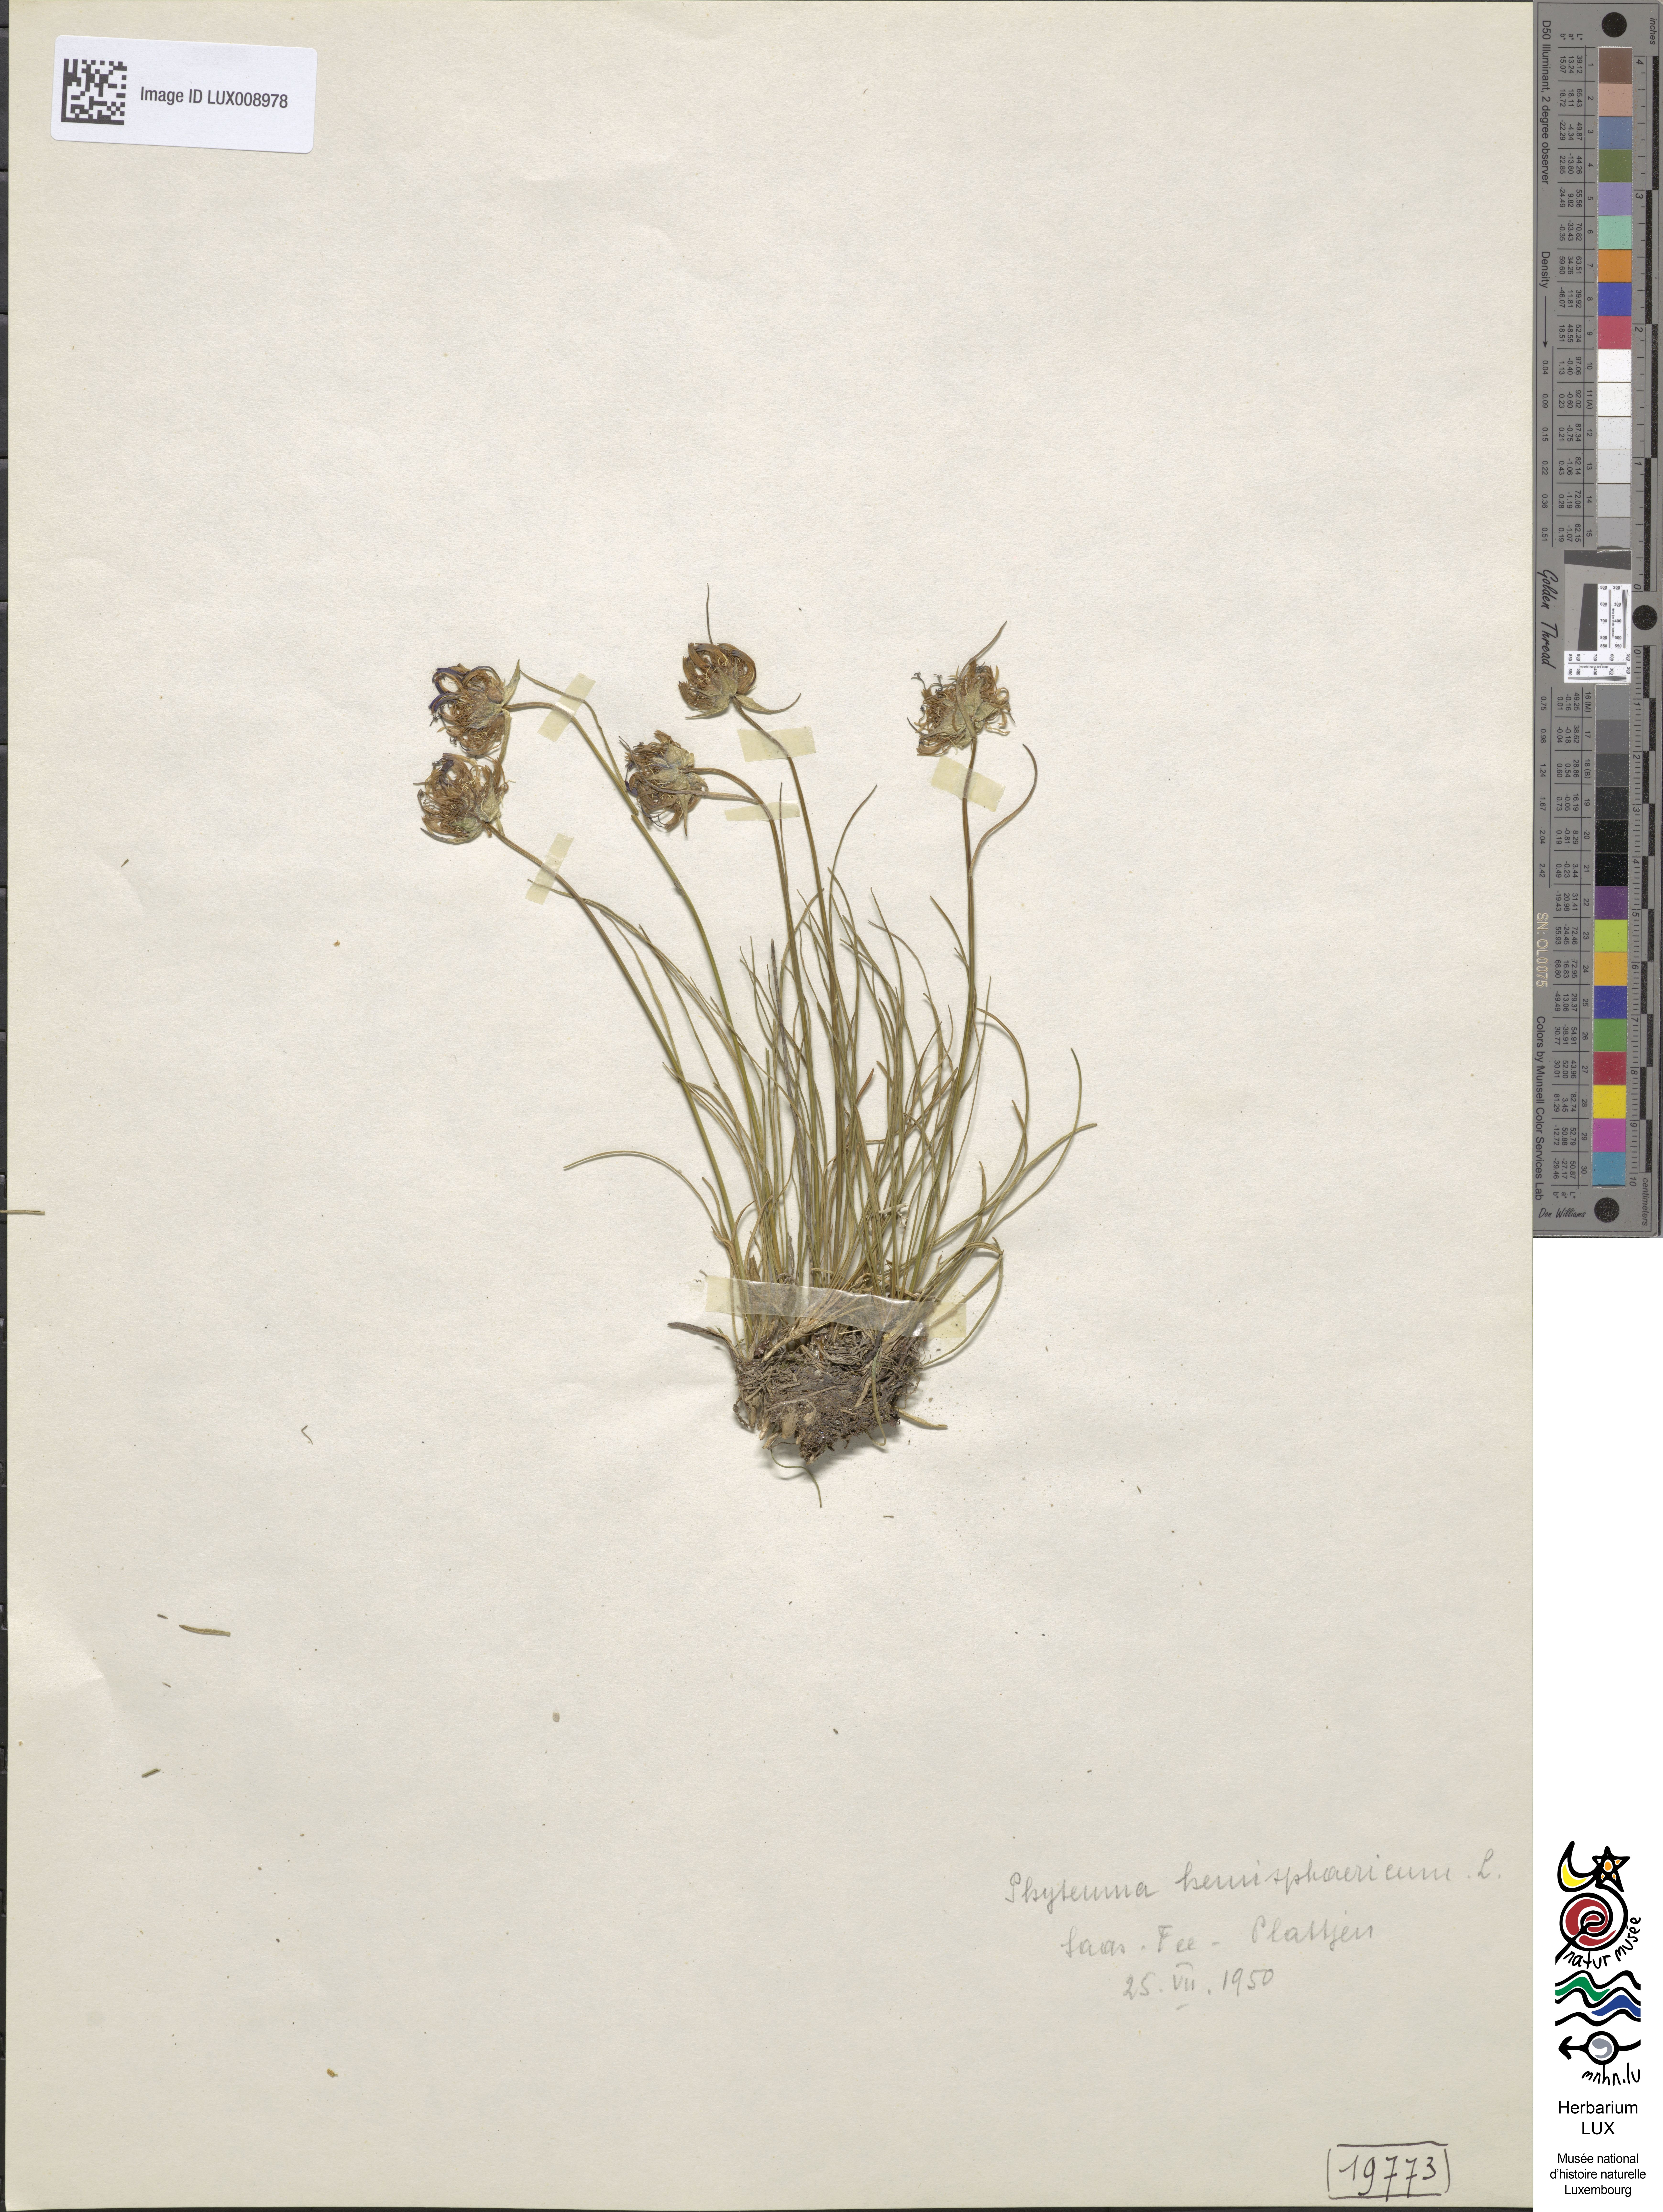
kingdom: Plantae
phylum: Tracheophyta
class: Magnoliopsida
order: Asterales
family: Campanulaceae
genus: Phyteuma
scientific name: Phyteuma hemisphaericum
